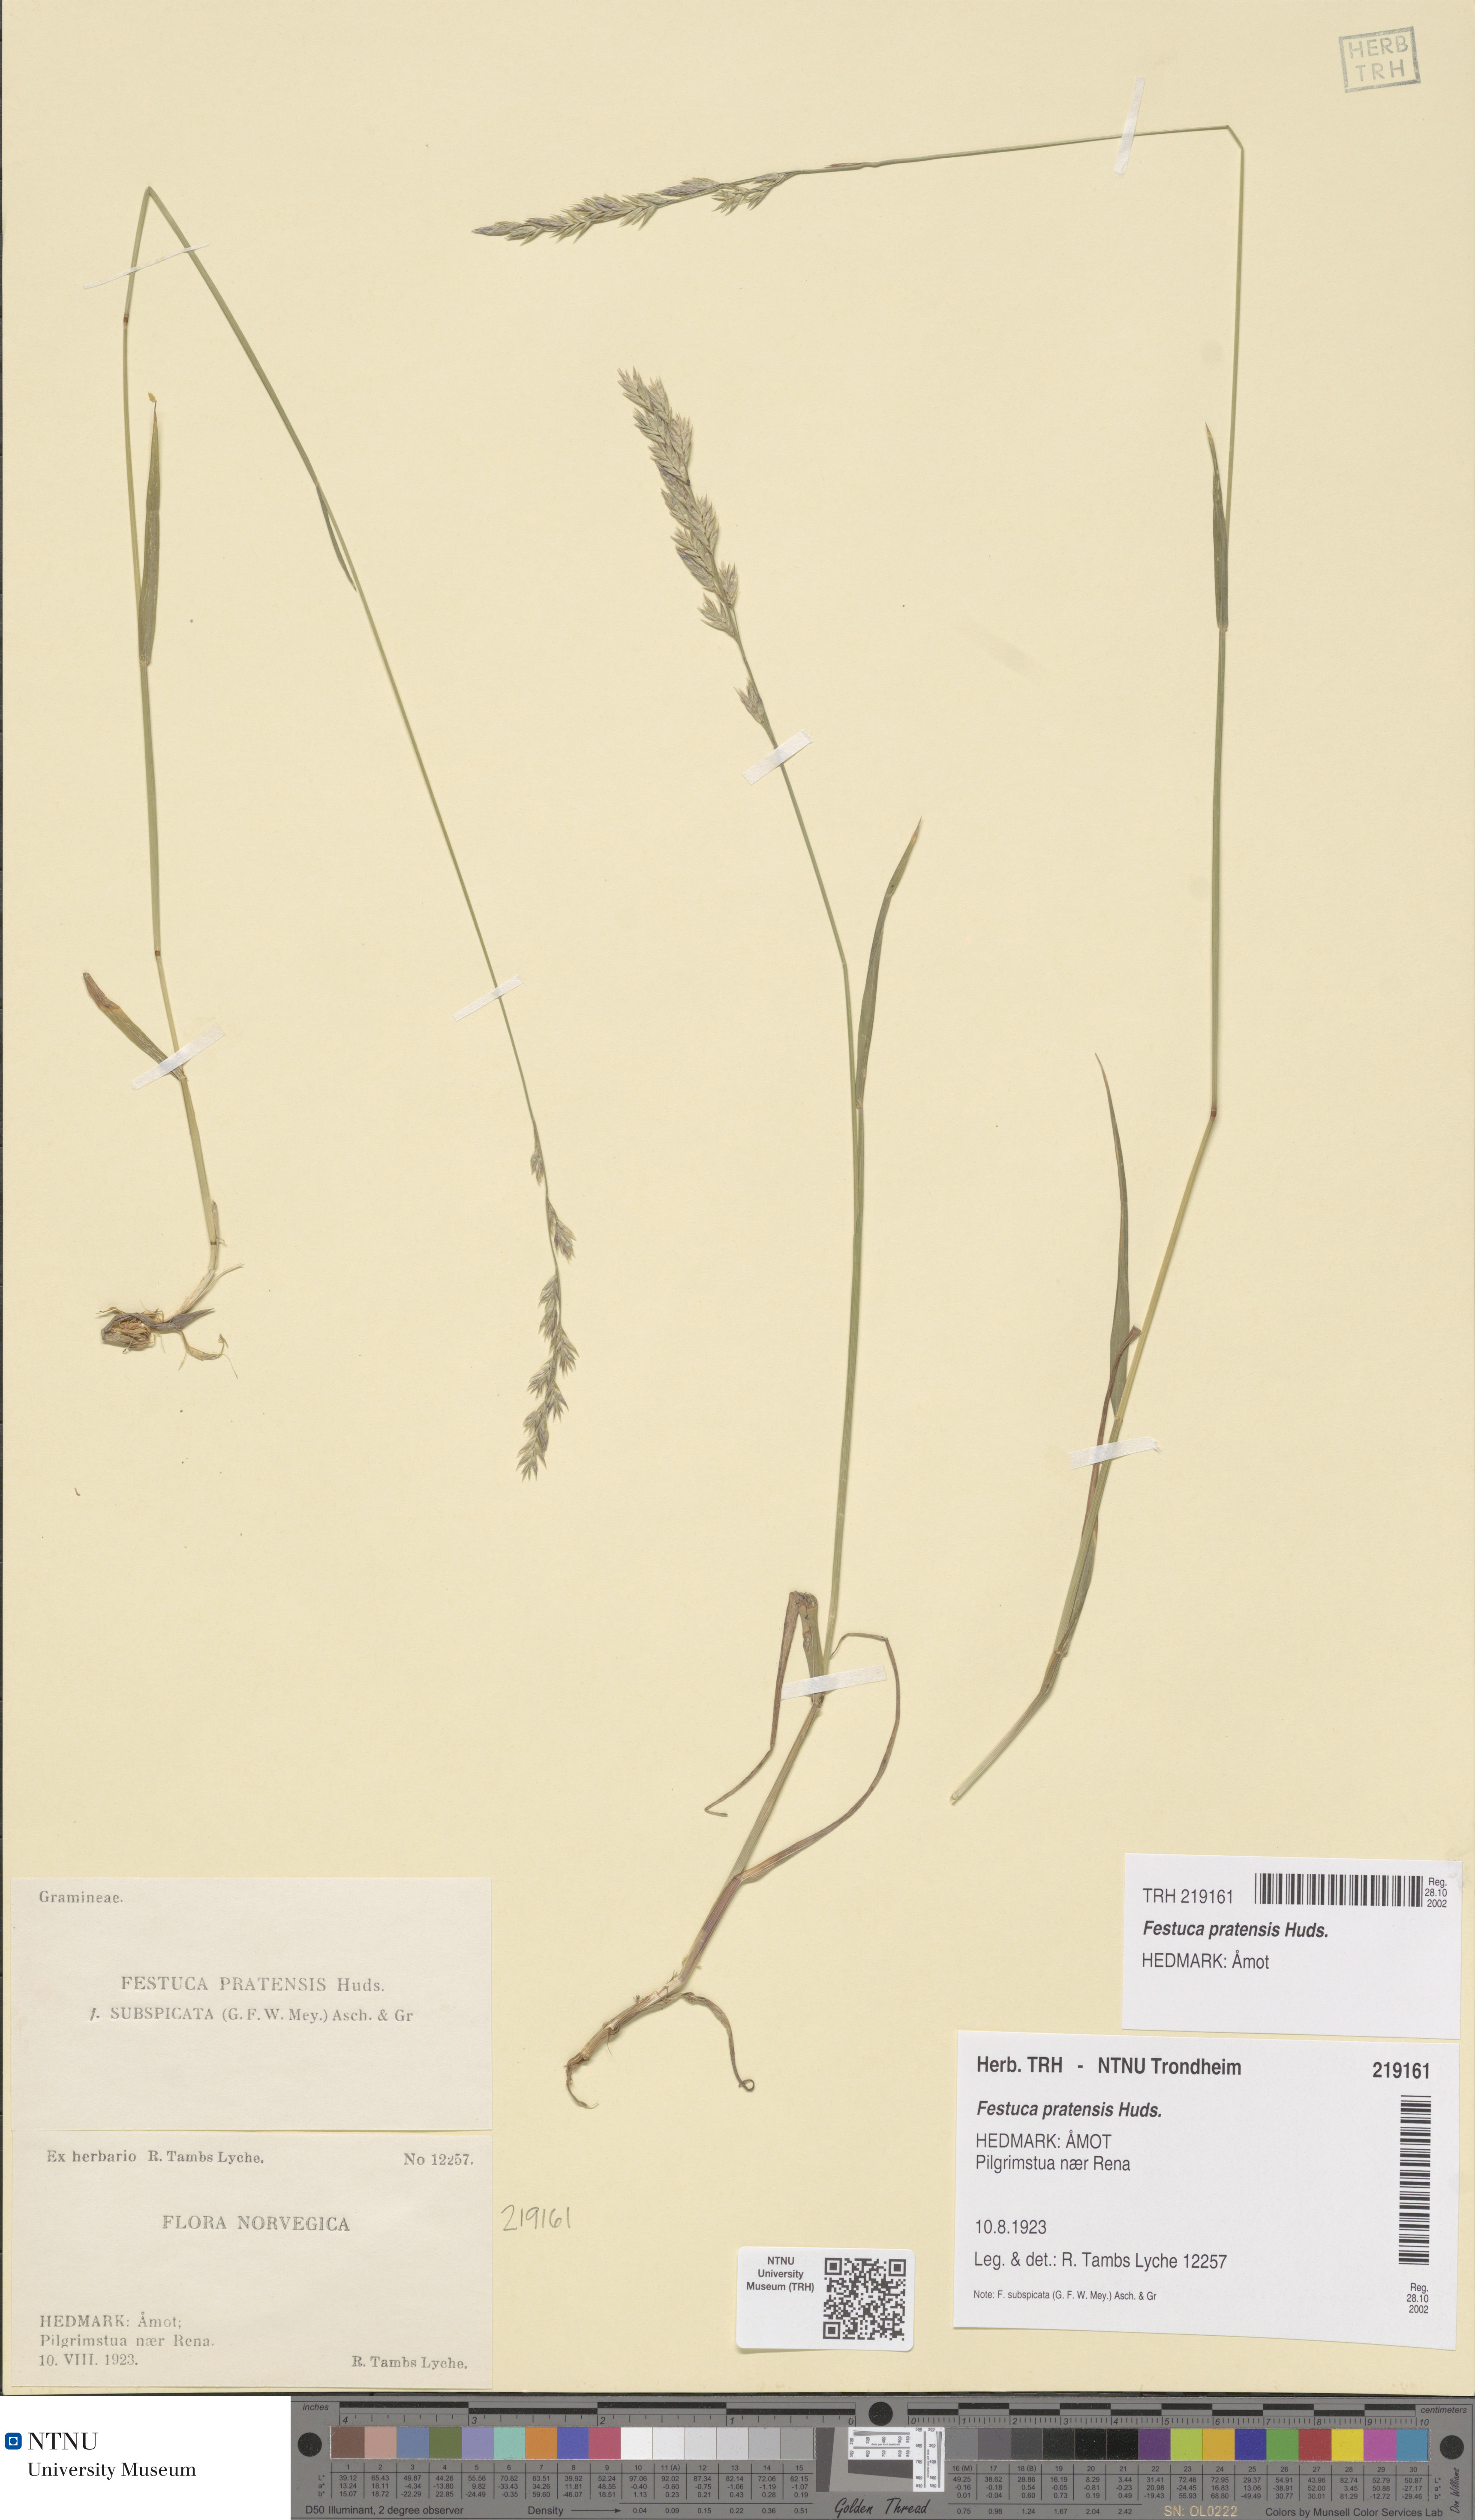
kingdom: Plantae
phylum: Tracheophyta
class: Liliopsida
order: Poales
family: Poaceae
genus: Lolium
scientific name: Lolium pratense
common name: Dover grass
